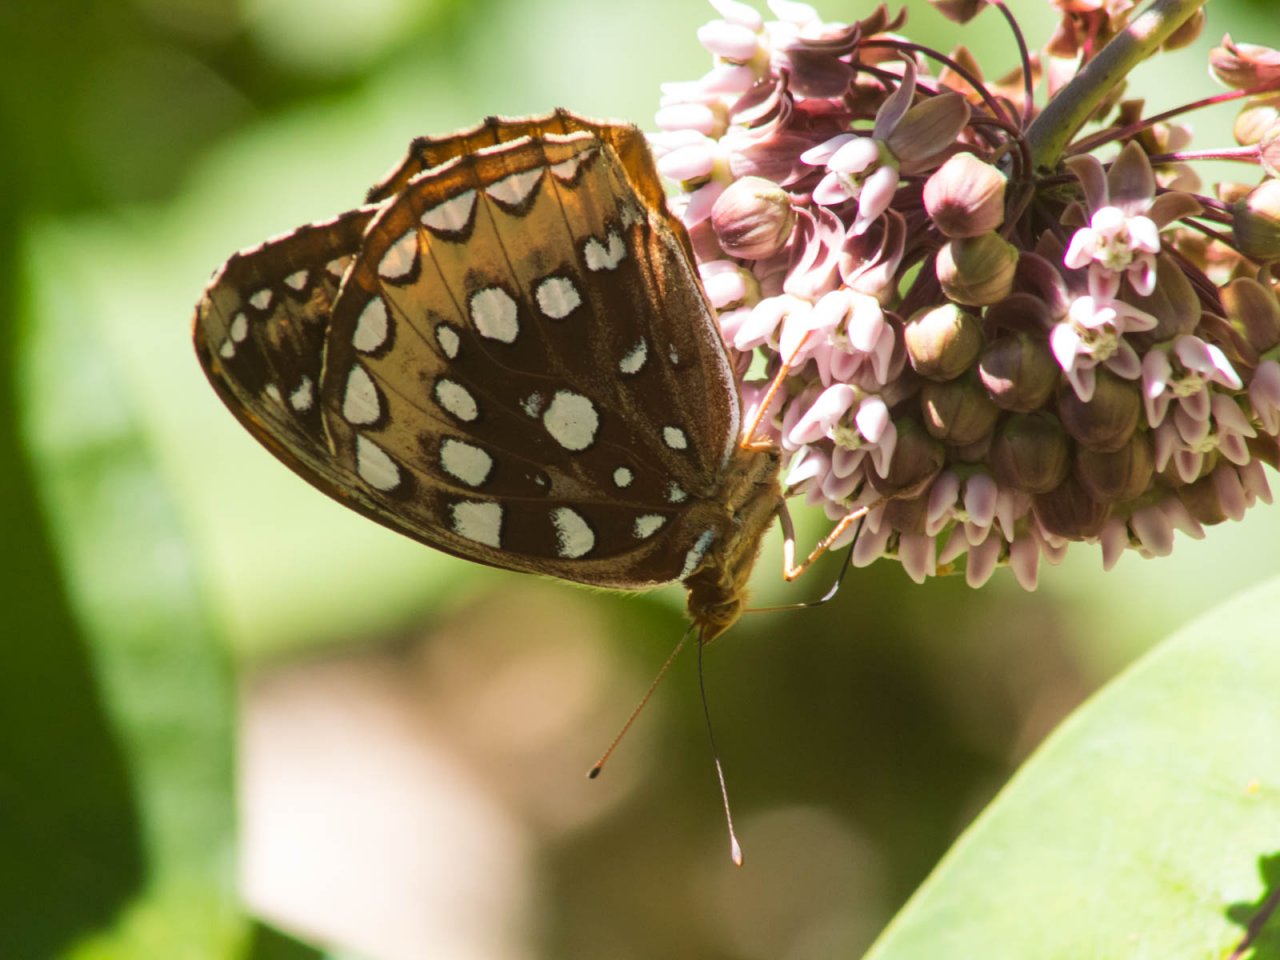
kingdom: Animalia
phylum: Arthropoda
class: Insecta
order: Lepidoptera
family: Nymphalidae
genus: Speyeria
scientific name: Speyeria cybele
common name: Great Spangled Fritillary
